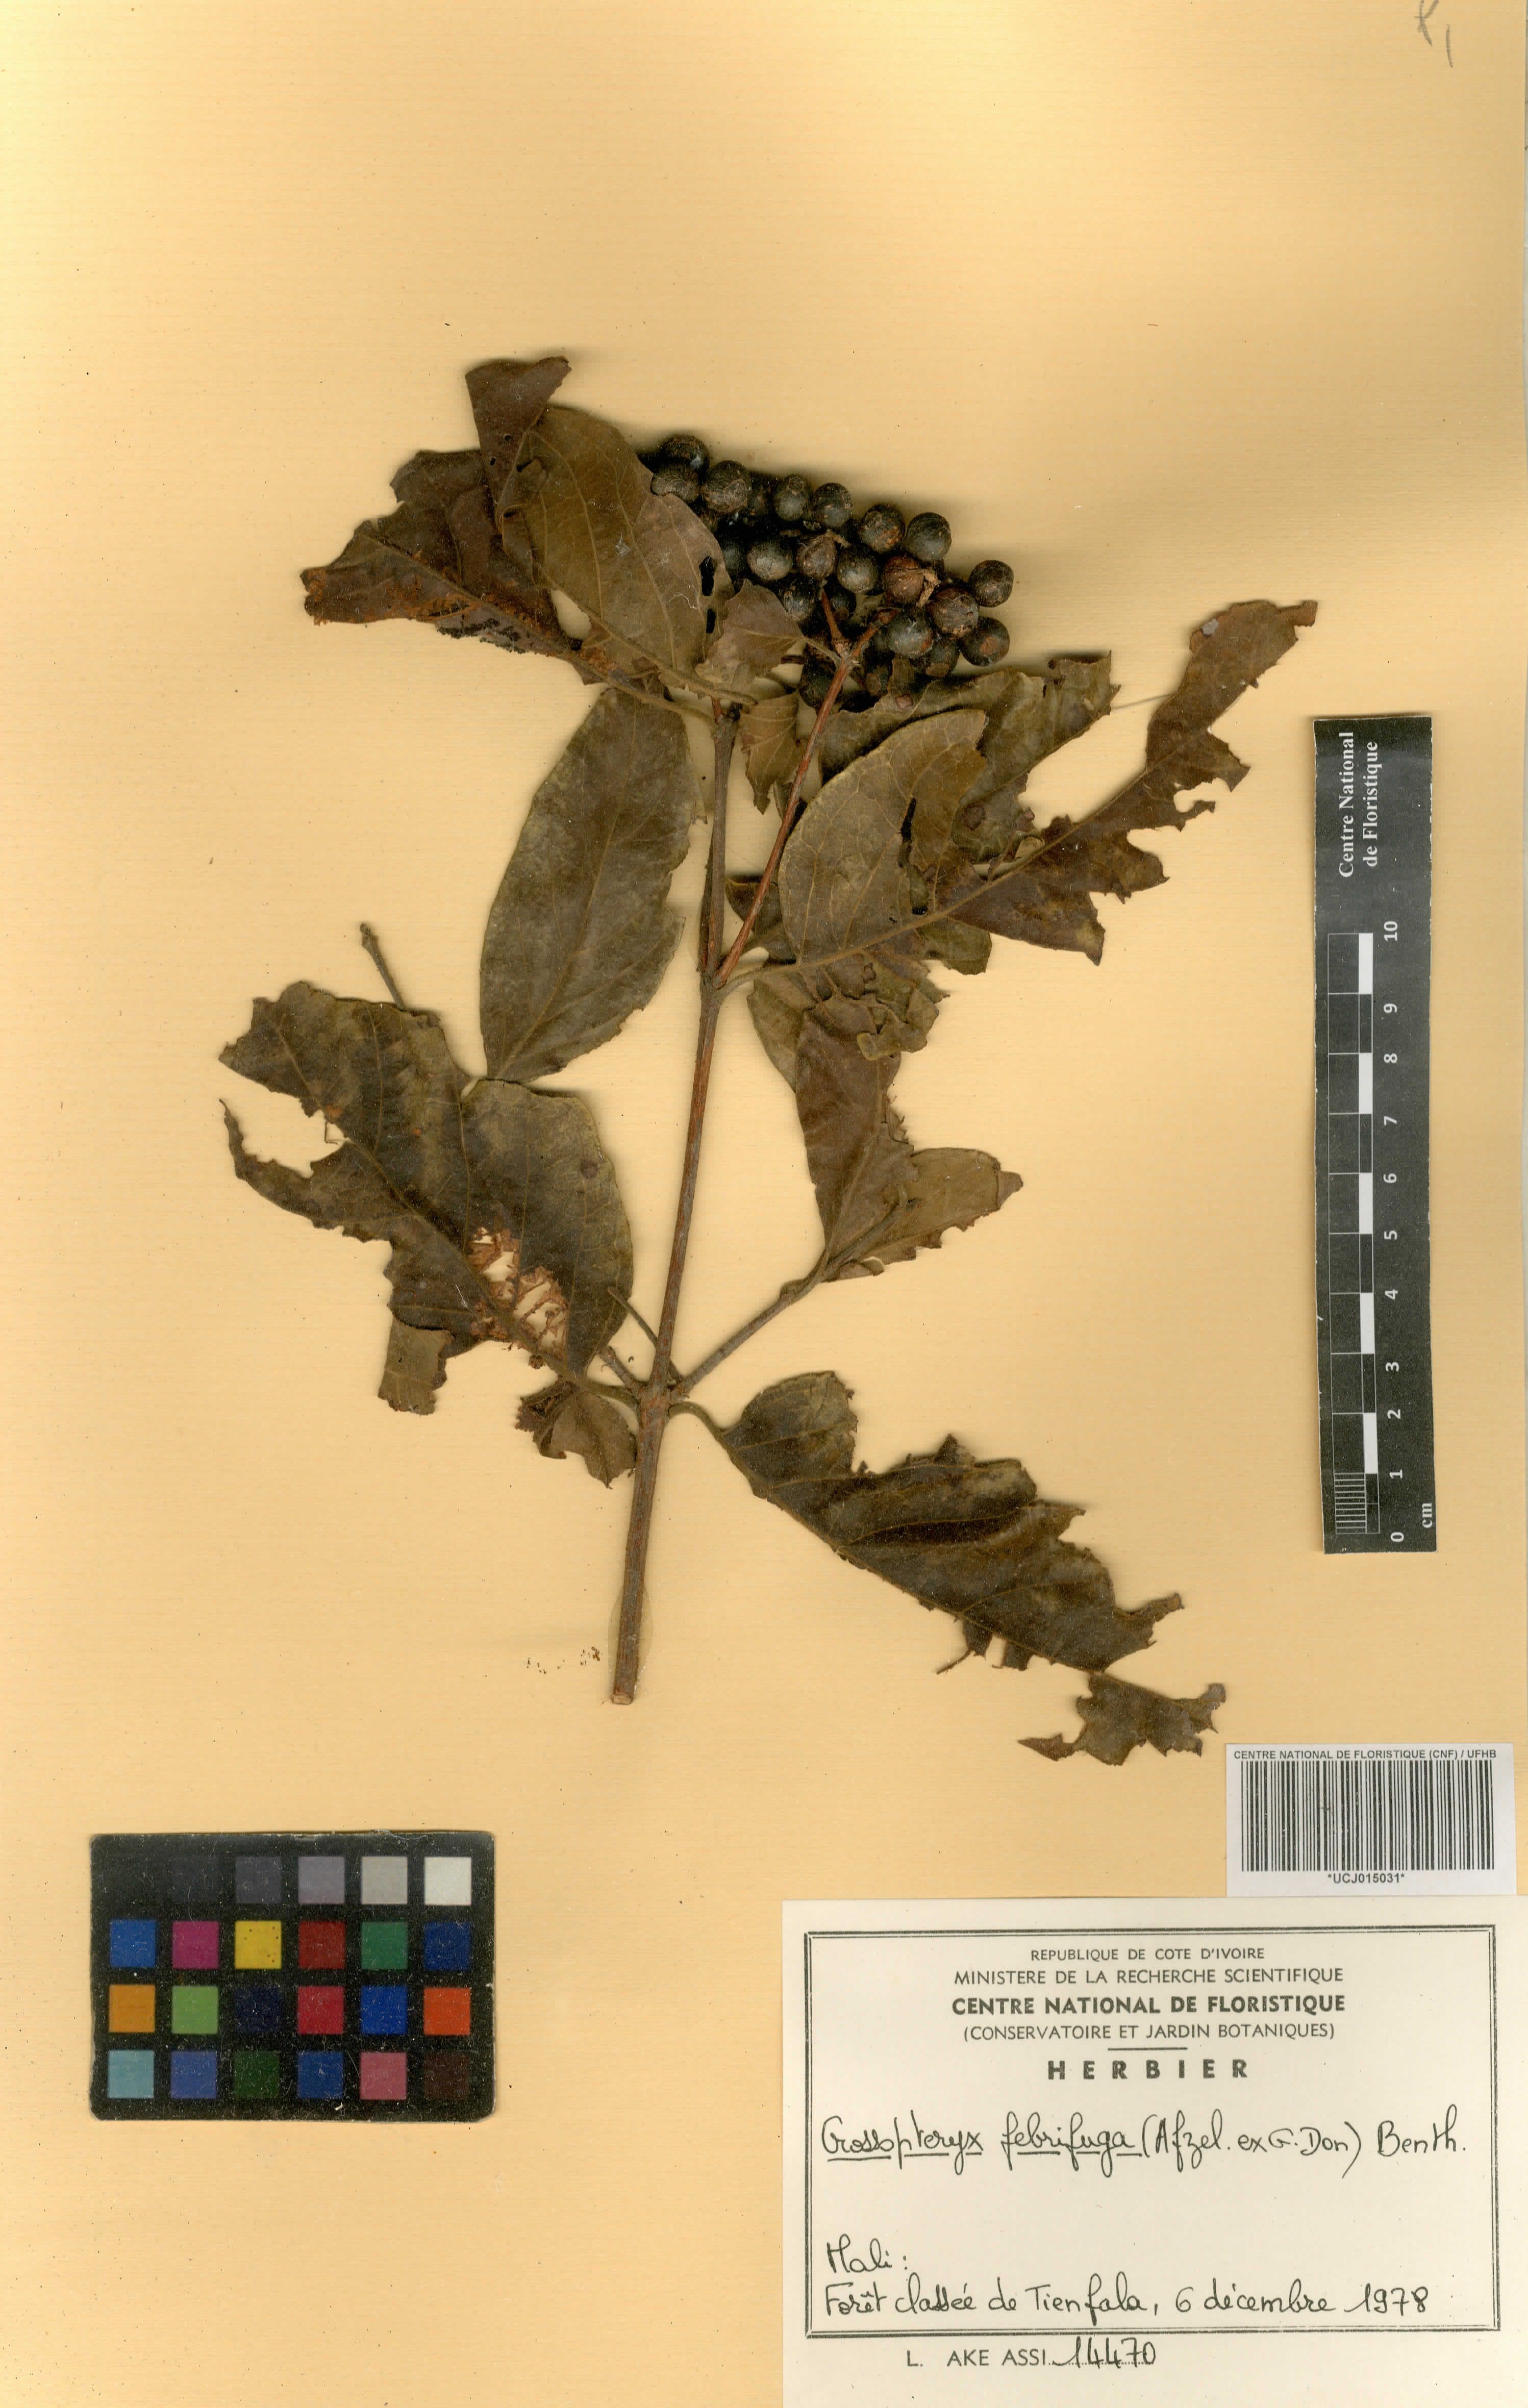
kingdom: Plantae
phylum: Tracheophyta
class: Magnoliopsida
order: Gentianales
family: Rubiaceae
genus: Crossopteryx
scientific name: Crossopteryx febrifuga
